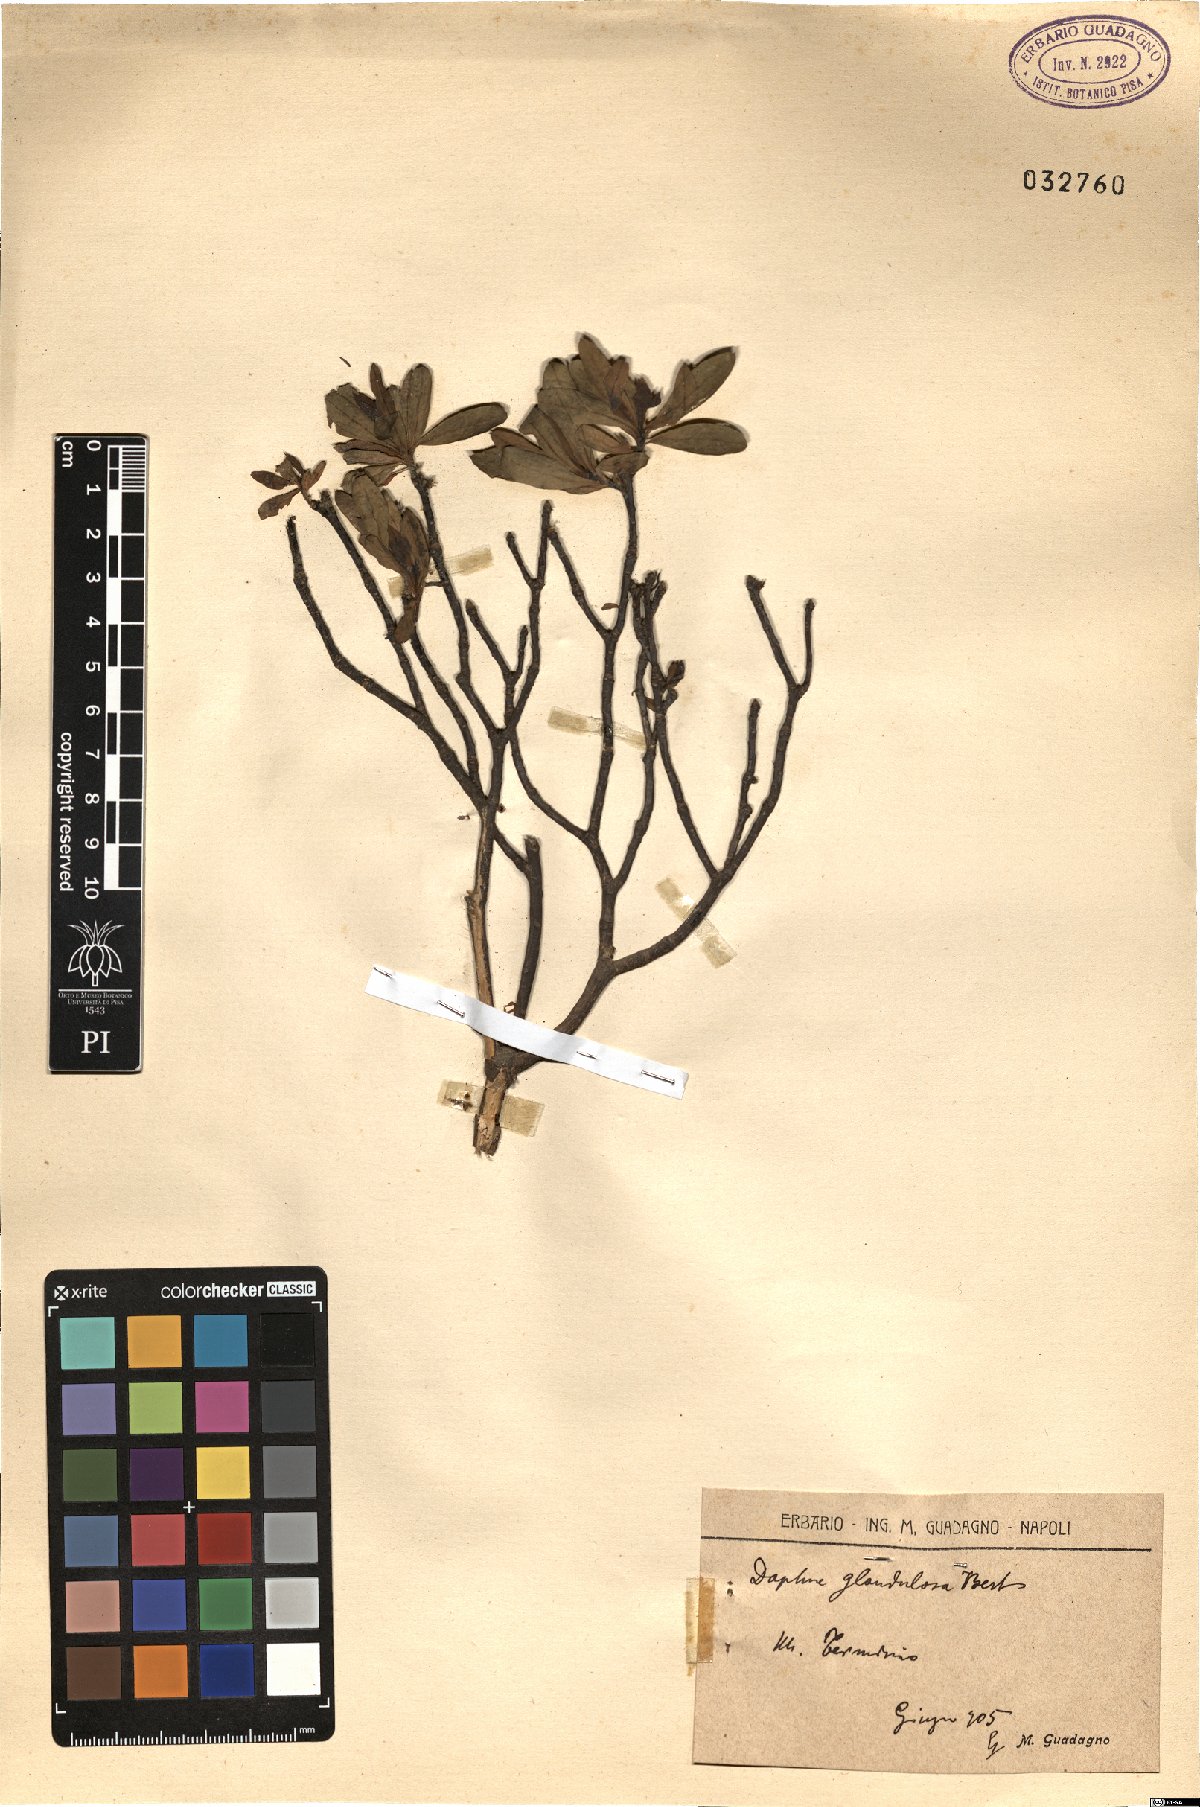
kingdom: Plantae
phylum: Tracheophyta
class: Magnoliopsida
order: Malvales
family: Thymelaeaceae
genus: Daphne
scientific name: Daphne oleoides
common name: Spurge-olive
